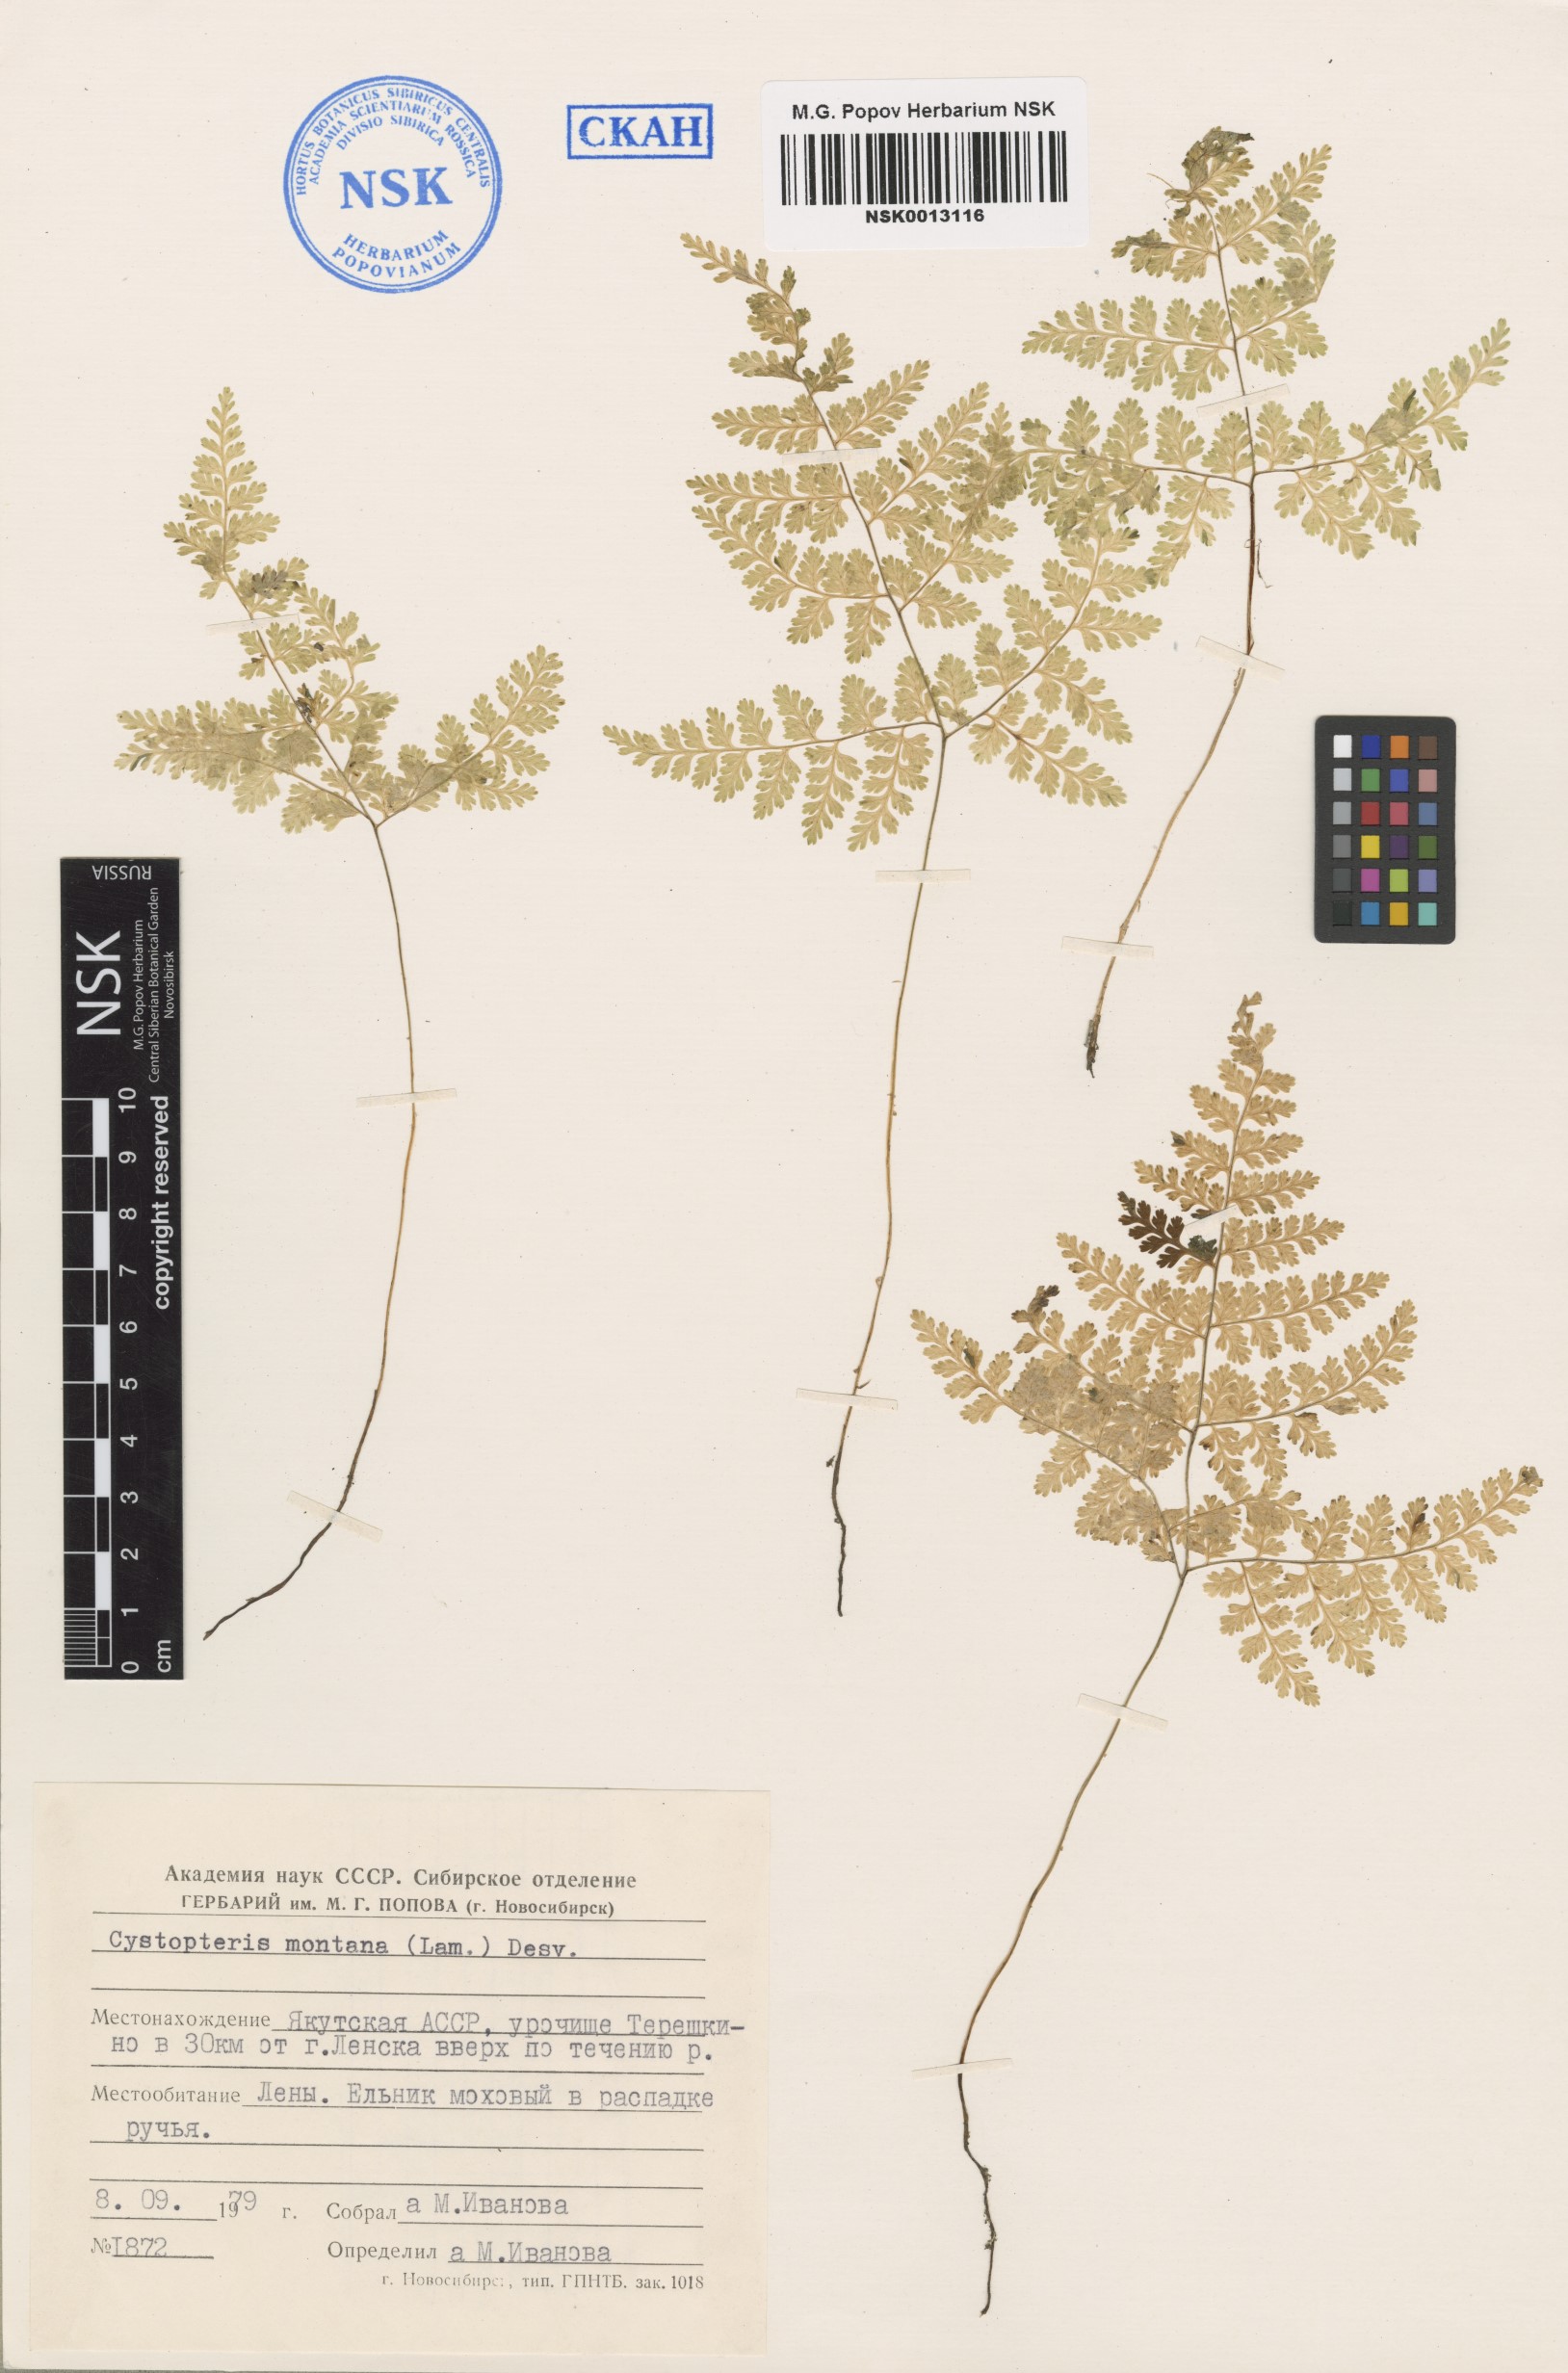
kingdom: Plantae
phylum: Tracheophyta
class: Polypodiopsida
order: Polypodiales
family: Cystopteridaceae
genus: Cystopteris
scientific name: Cystopteris montana
